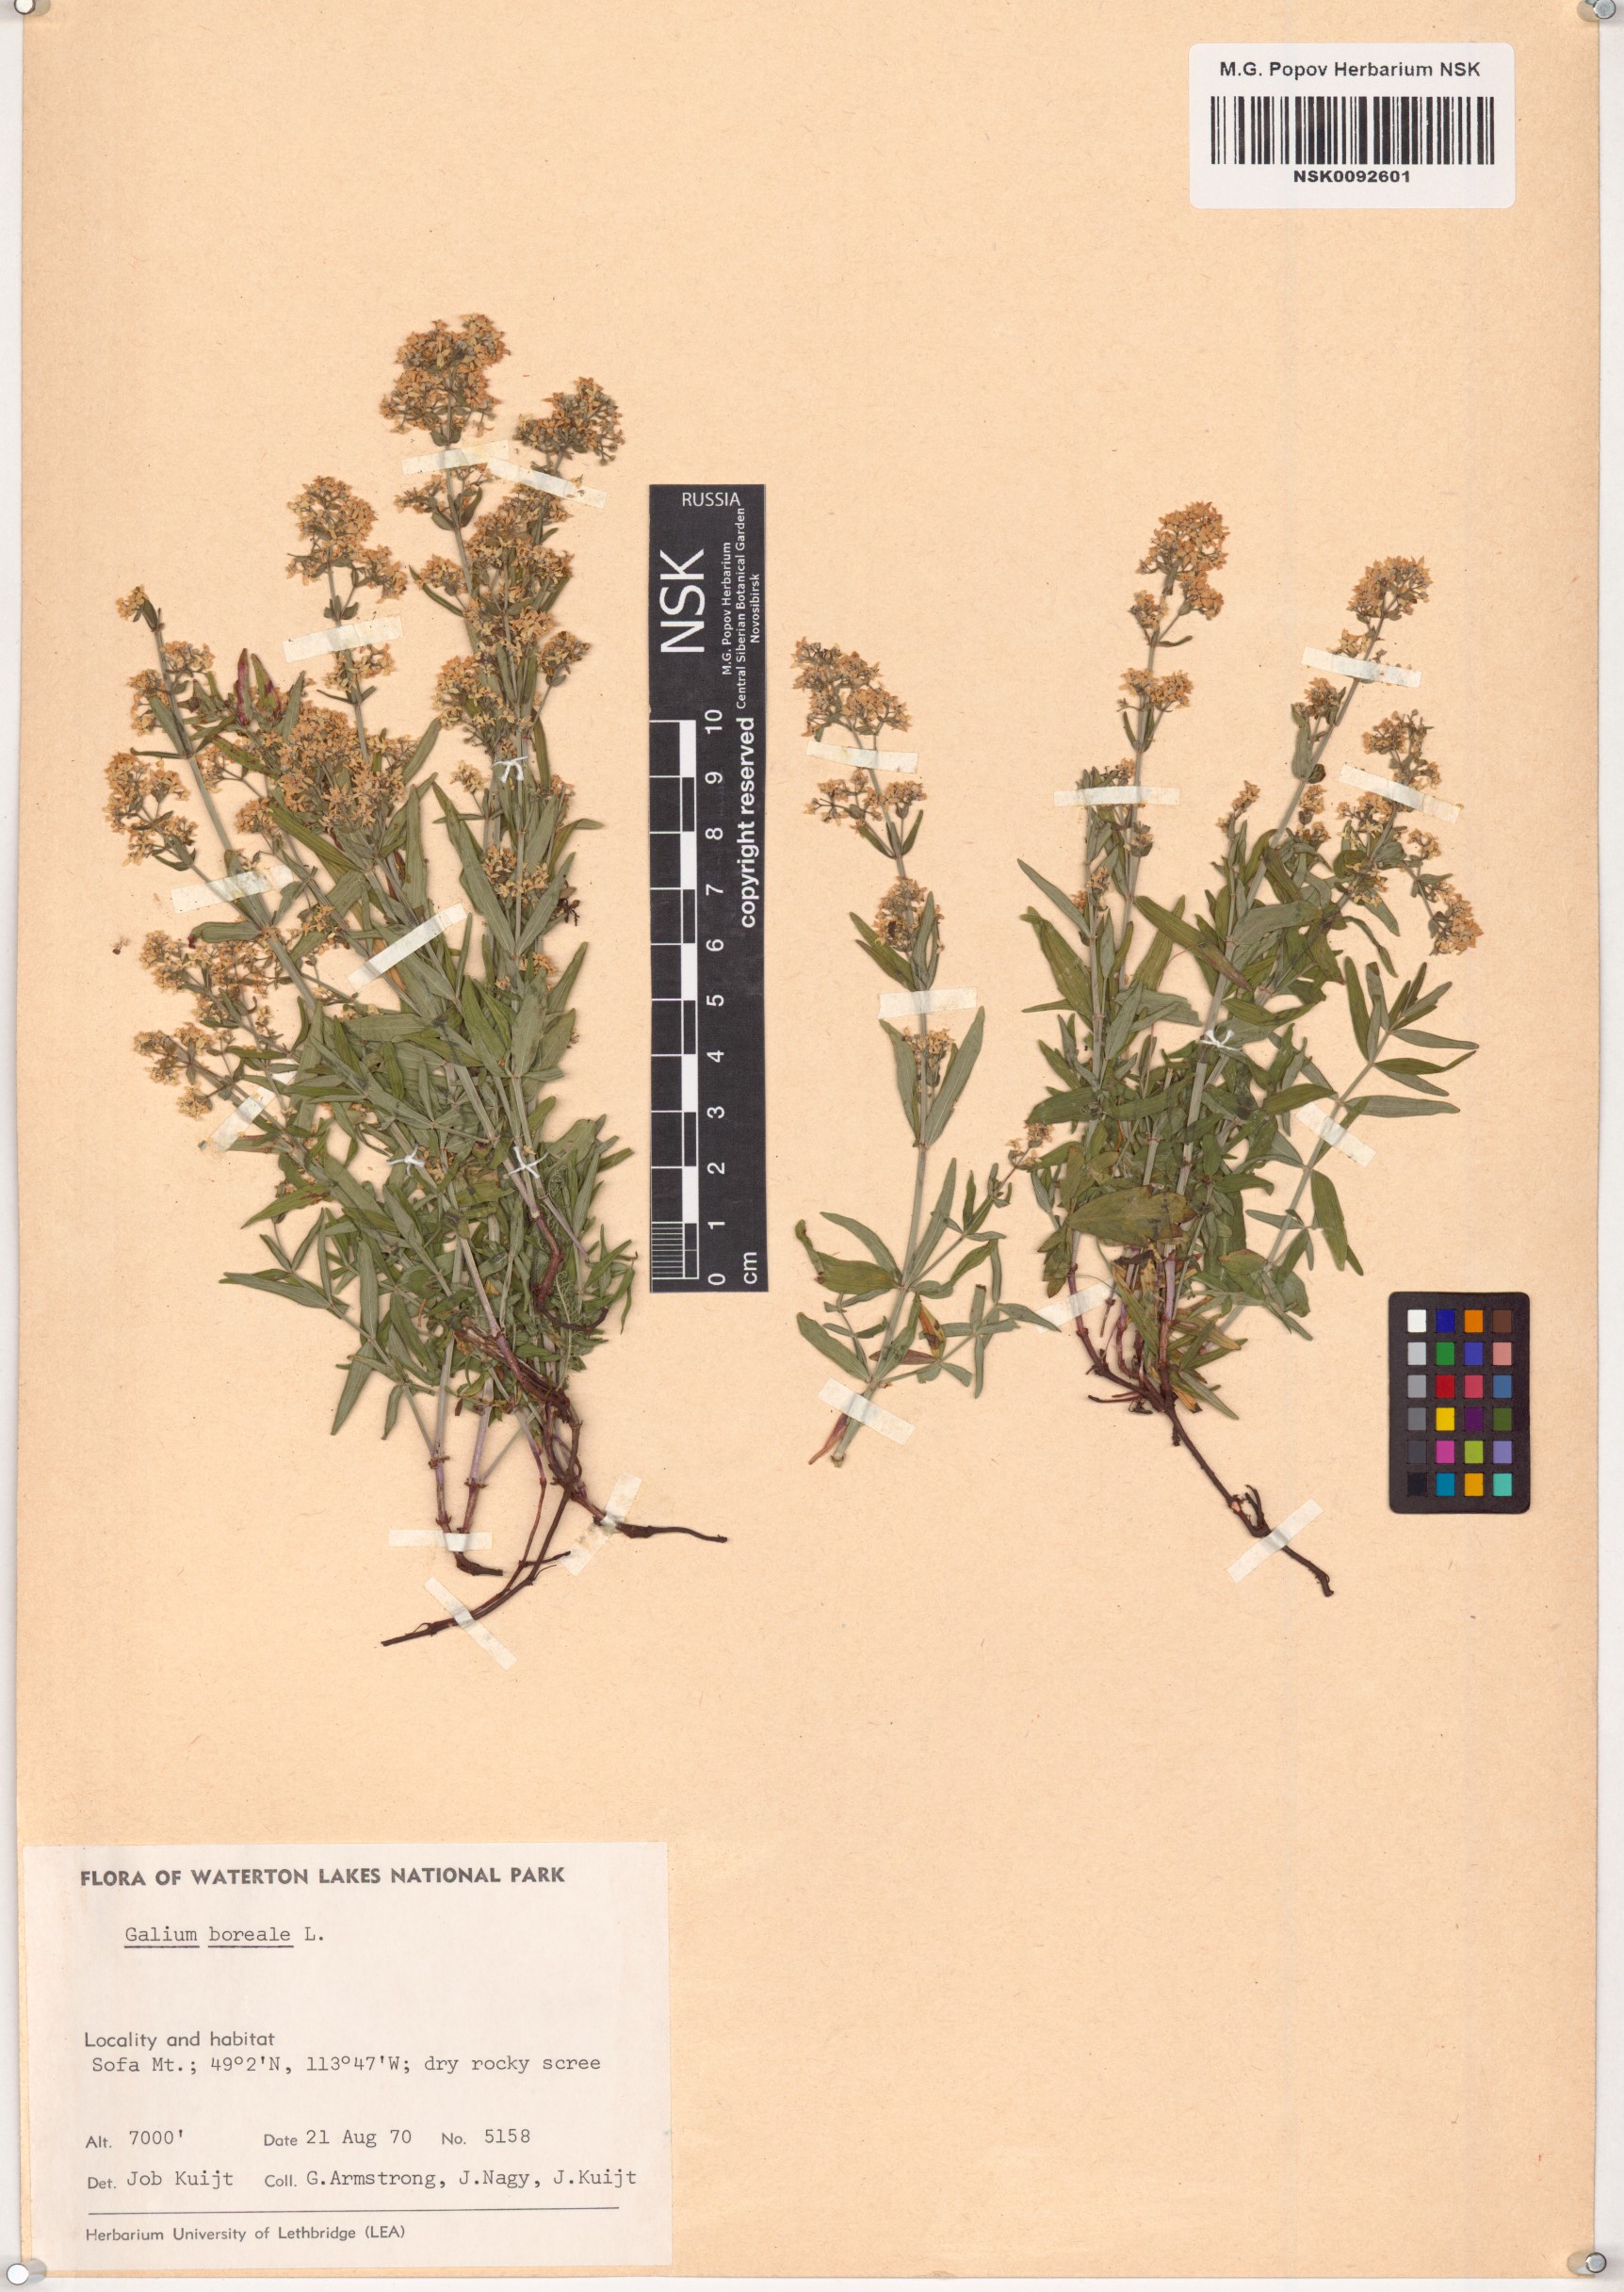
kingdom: Plantae
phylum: Tracheophyta
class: Magnoliopsida
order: Gentianales
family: Rubiaceae
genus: Galium
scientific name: Galium boreale
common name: Northern bedstraw
